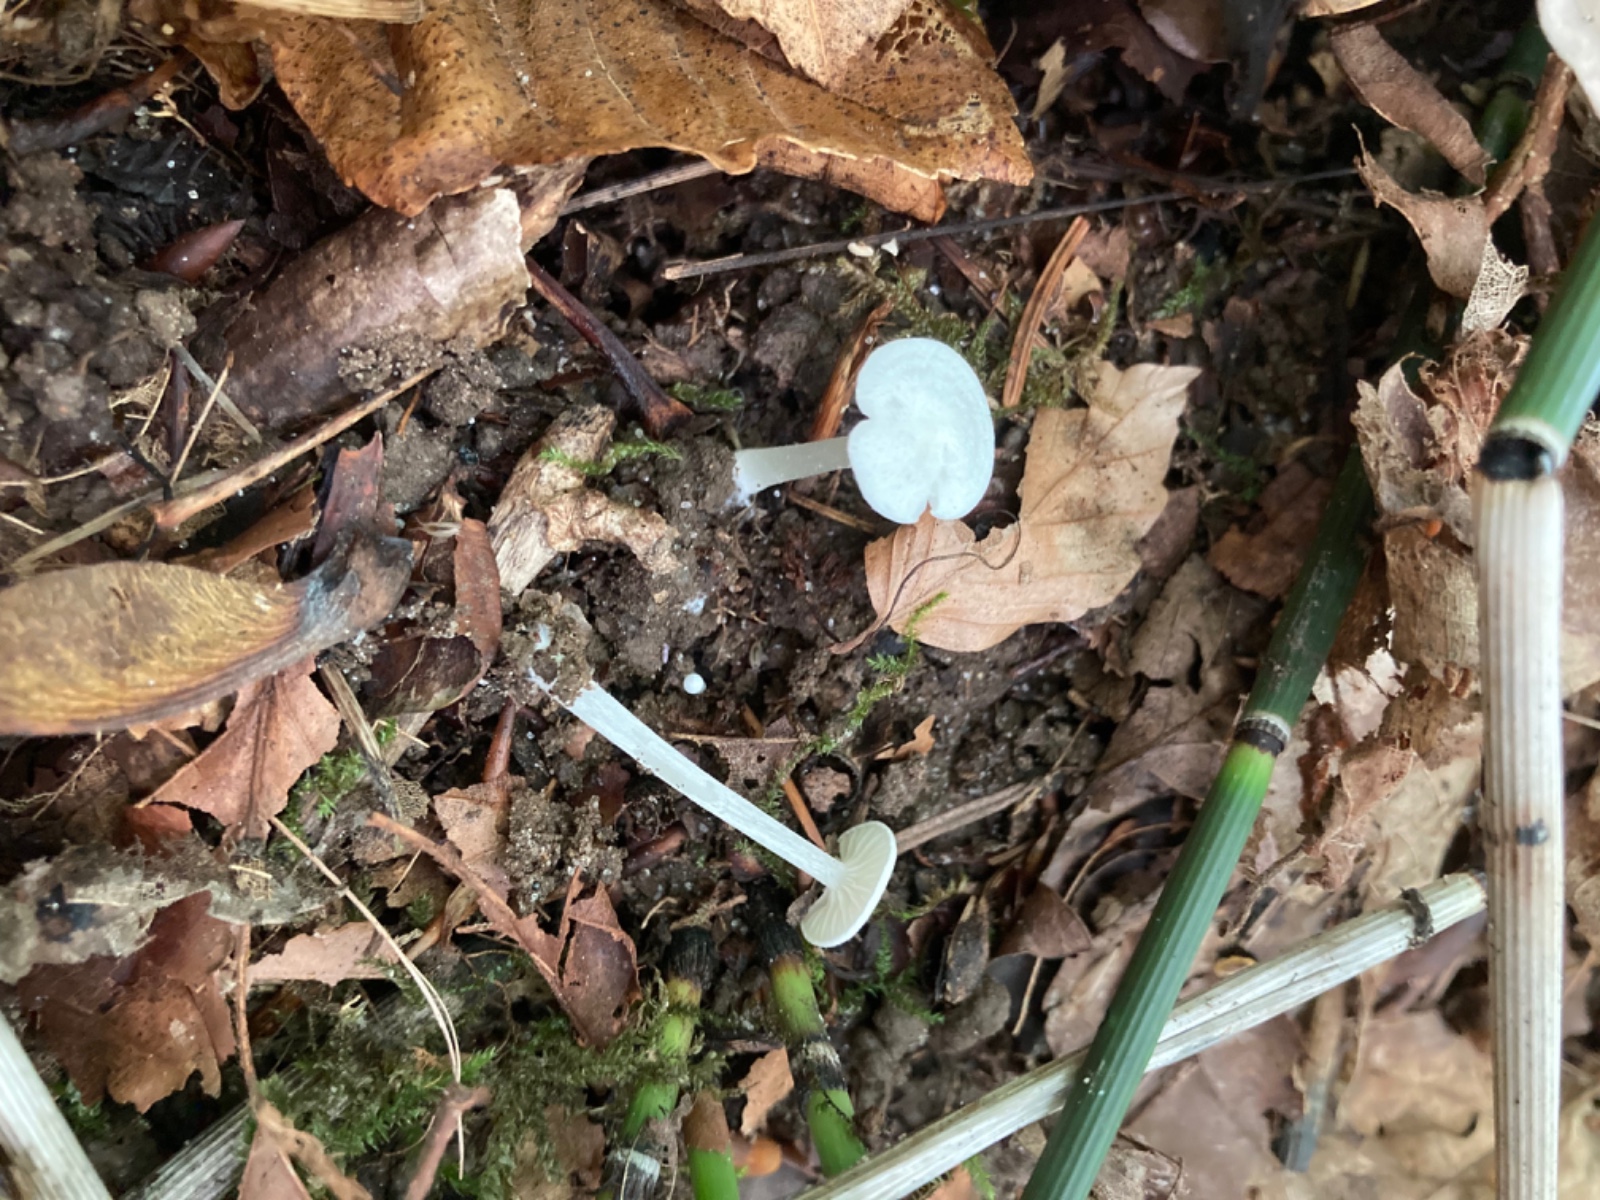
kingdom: Fungi
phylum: Basidiomycota
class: Agaricomycetes
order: Agaricales
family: Entolomataceae
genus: Entoloma
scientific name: Entoloma sericellum
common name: silkehvid rødblad
